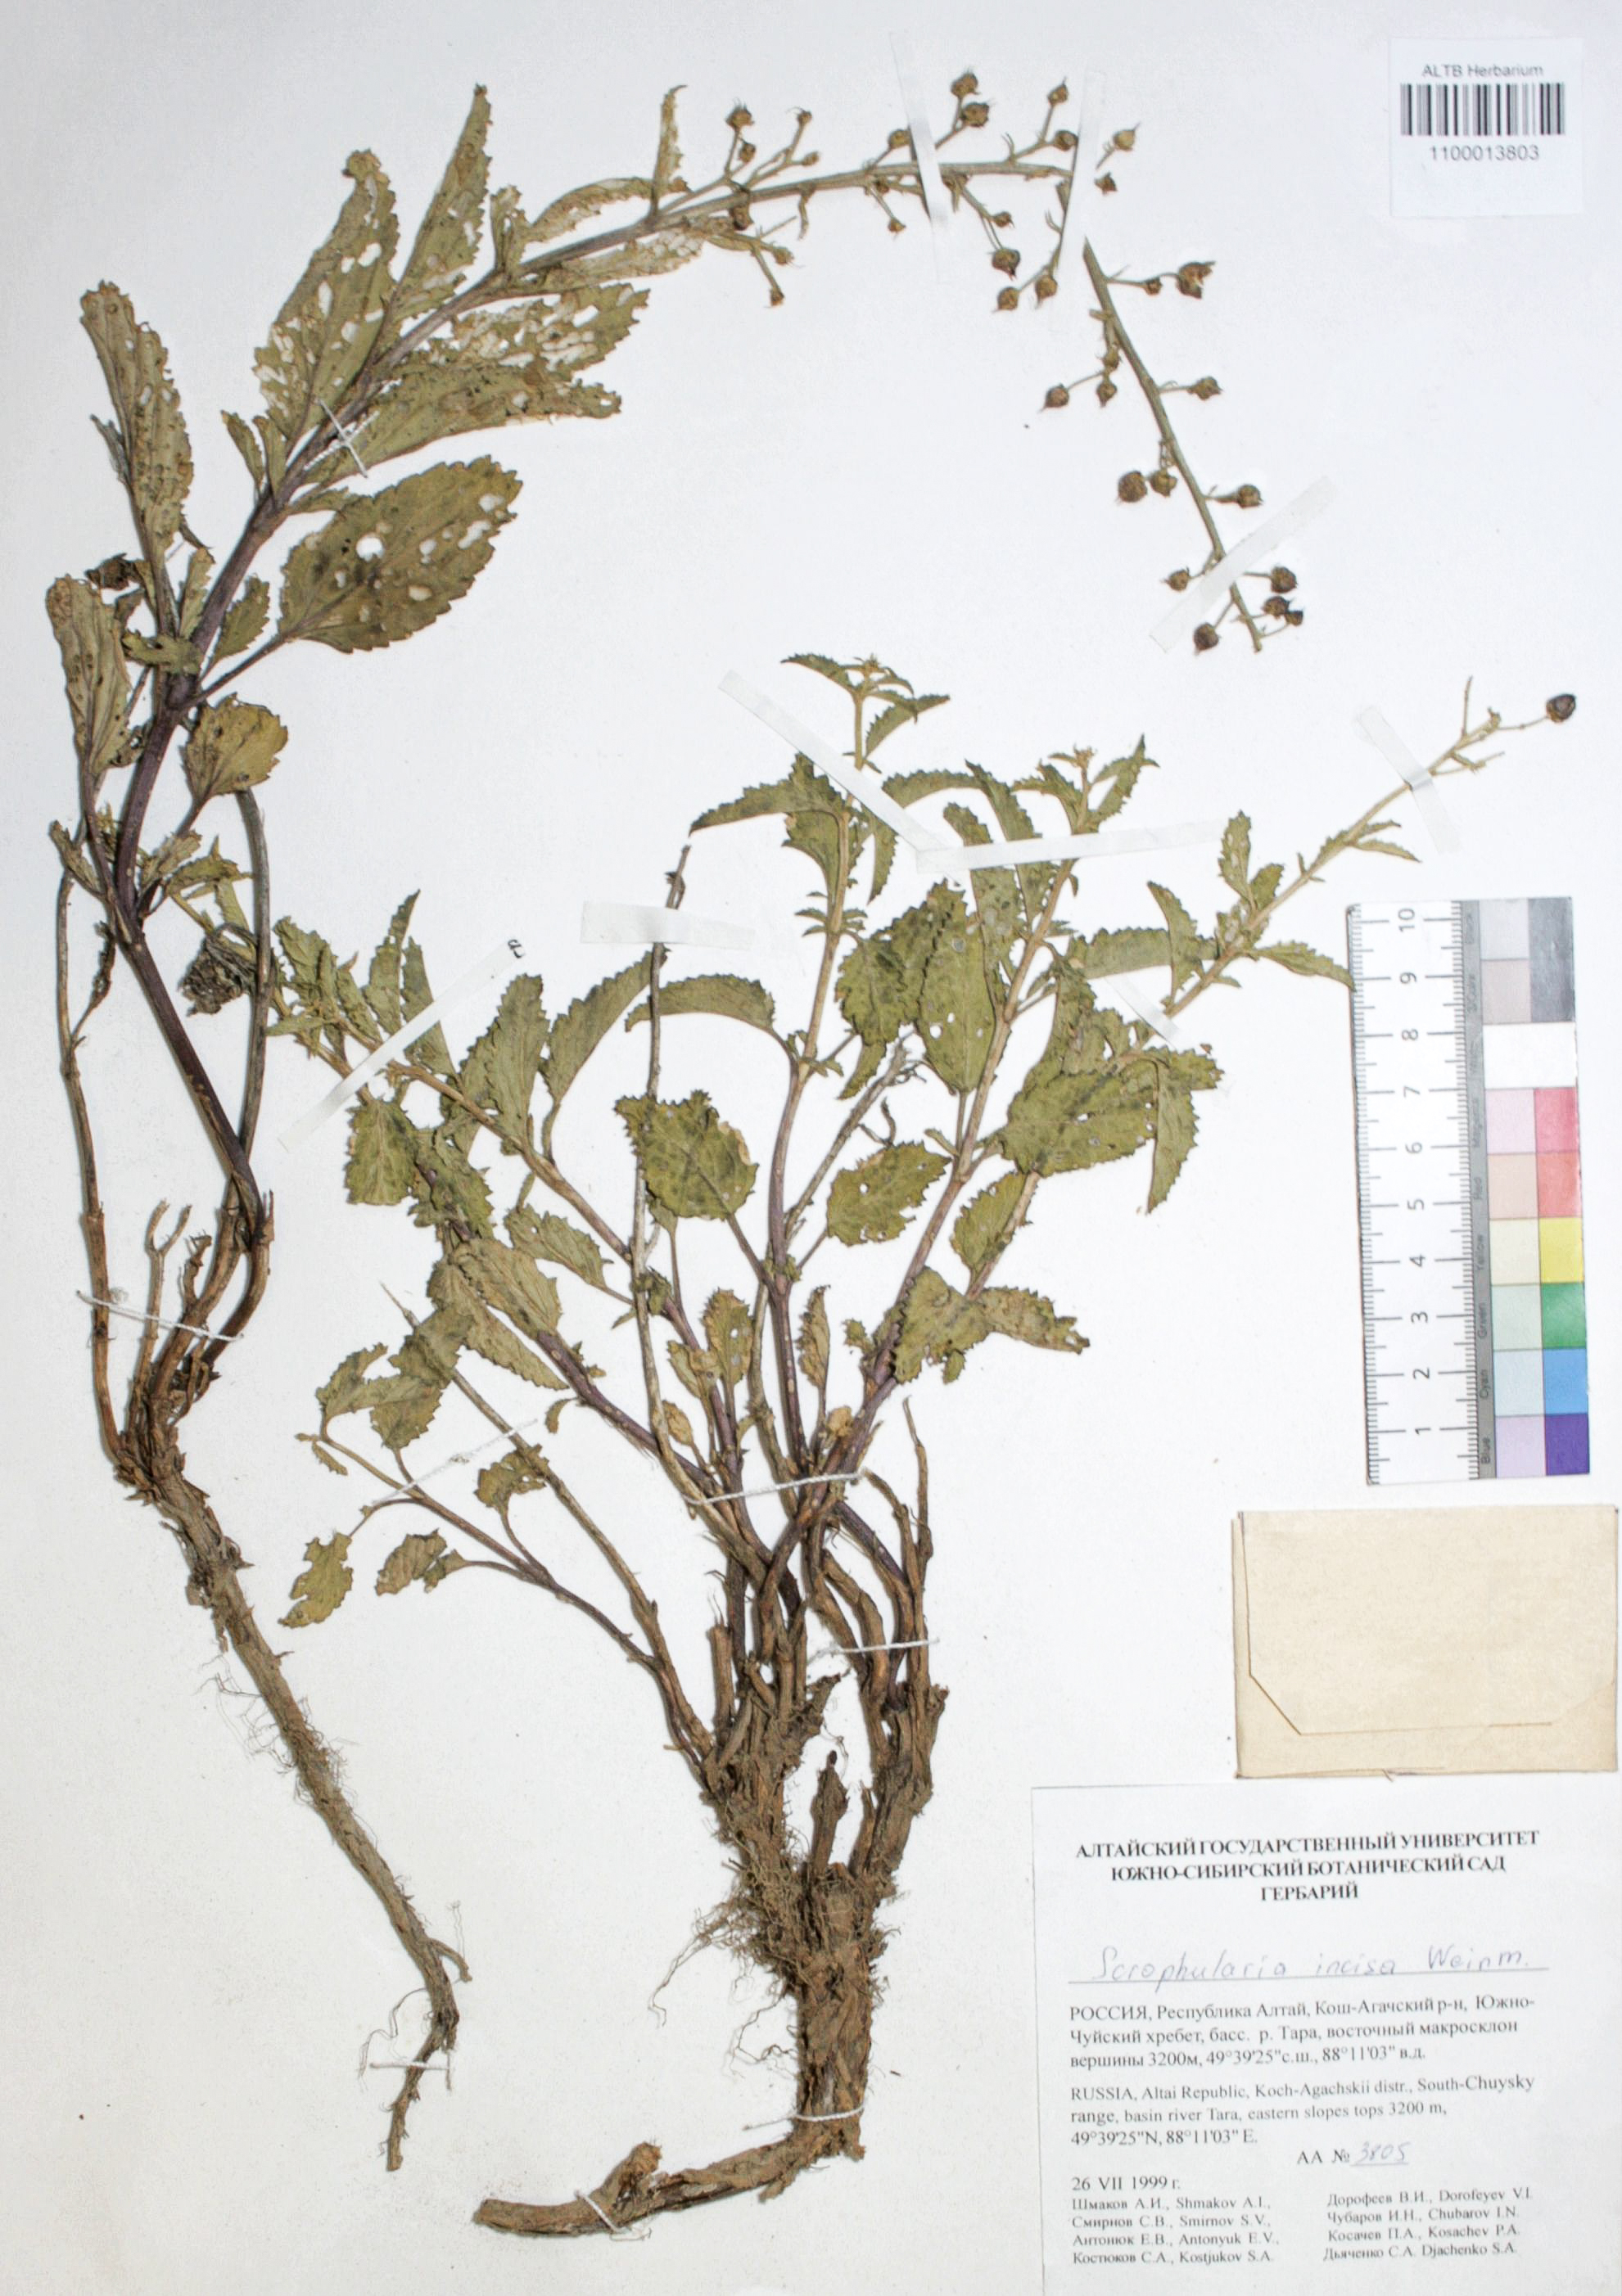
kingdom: Plantae
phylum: Tracheophyta
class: Magnoliopsida
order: Lamiales
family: Scrophulariaceae
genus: Scrophularia
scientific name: Scrophularia incisa
